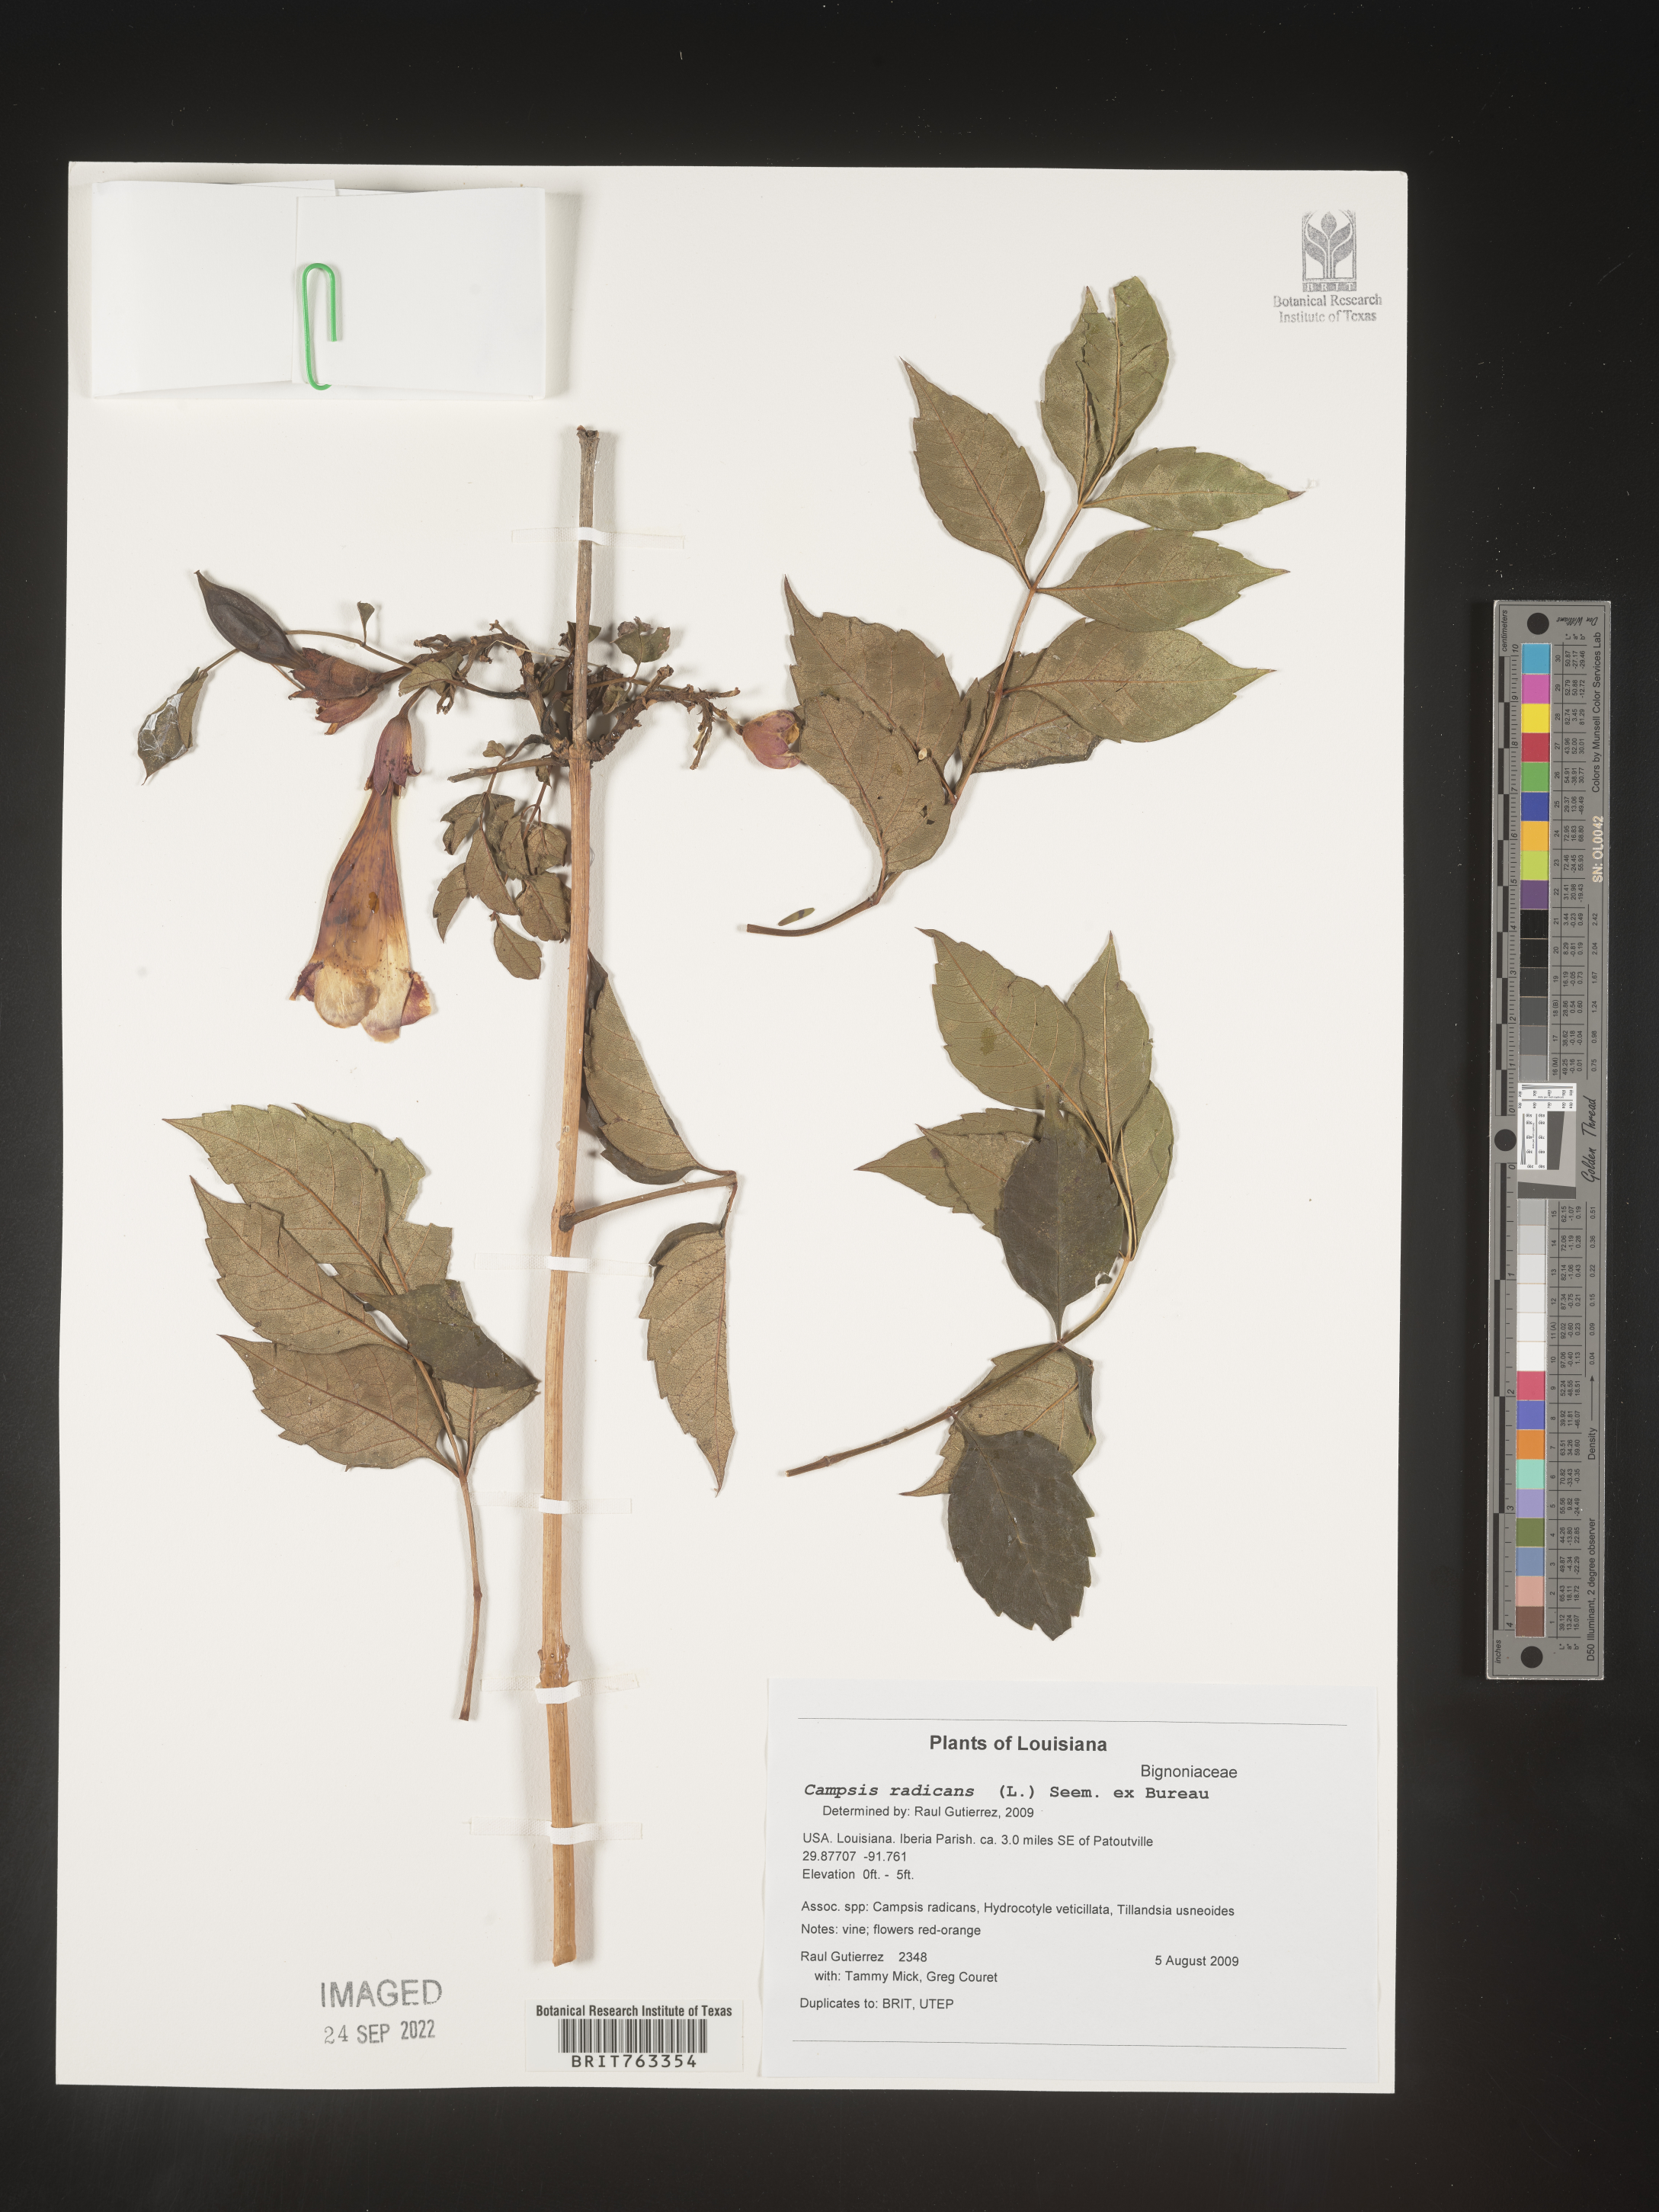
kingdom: Plantae
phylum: Tracheophyta
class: Magnoliopsida
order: Lamiales
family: Bignoniaceae
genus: Campsis
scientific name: Campsis radicans
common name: Trumpet-creeper
